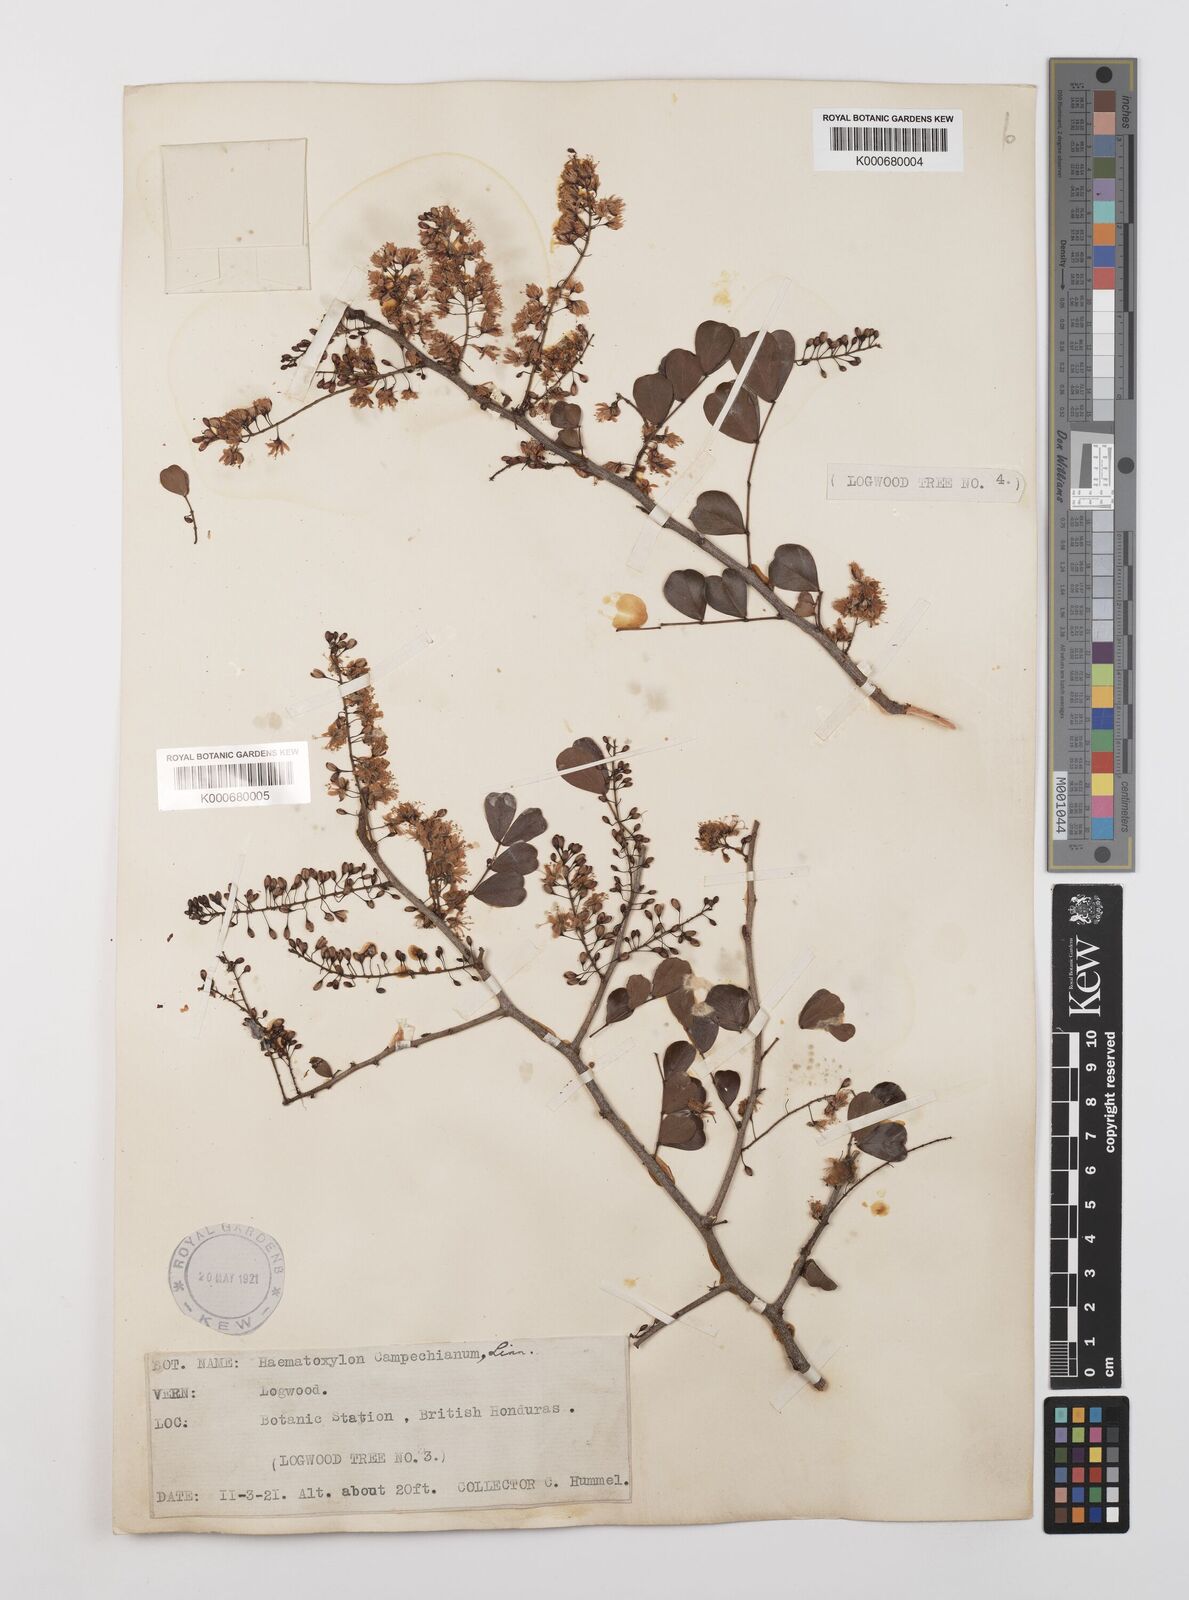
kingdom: Plantae
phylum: Tracheophyta
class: Magnoliopsida
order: Fabales
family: Fabaceae
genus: Haematoxylum
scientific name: Haematoxylum
